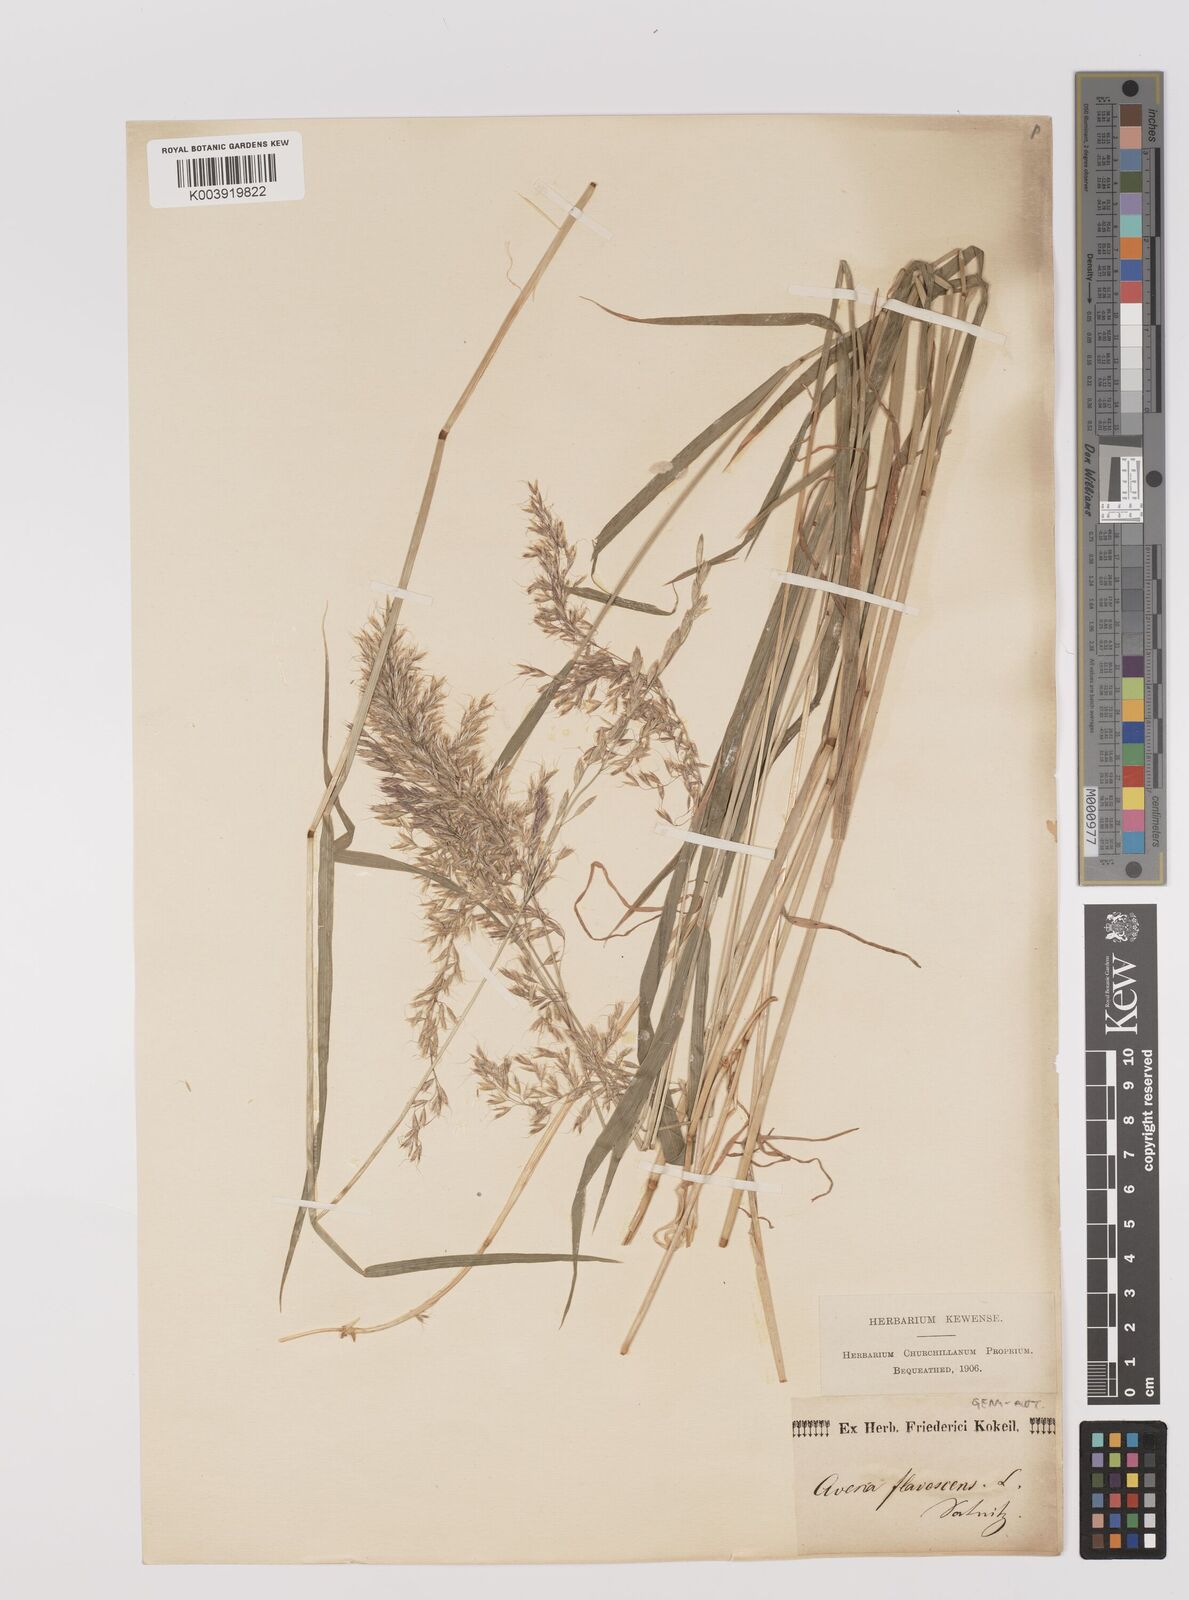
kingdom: Plantae
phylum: Tracheophyta
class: Liliopsida
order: Poales
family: Poaceae
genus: Trisetum
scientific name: Trisetum flavescens
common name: Yellow oat-grass
